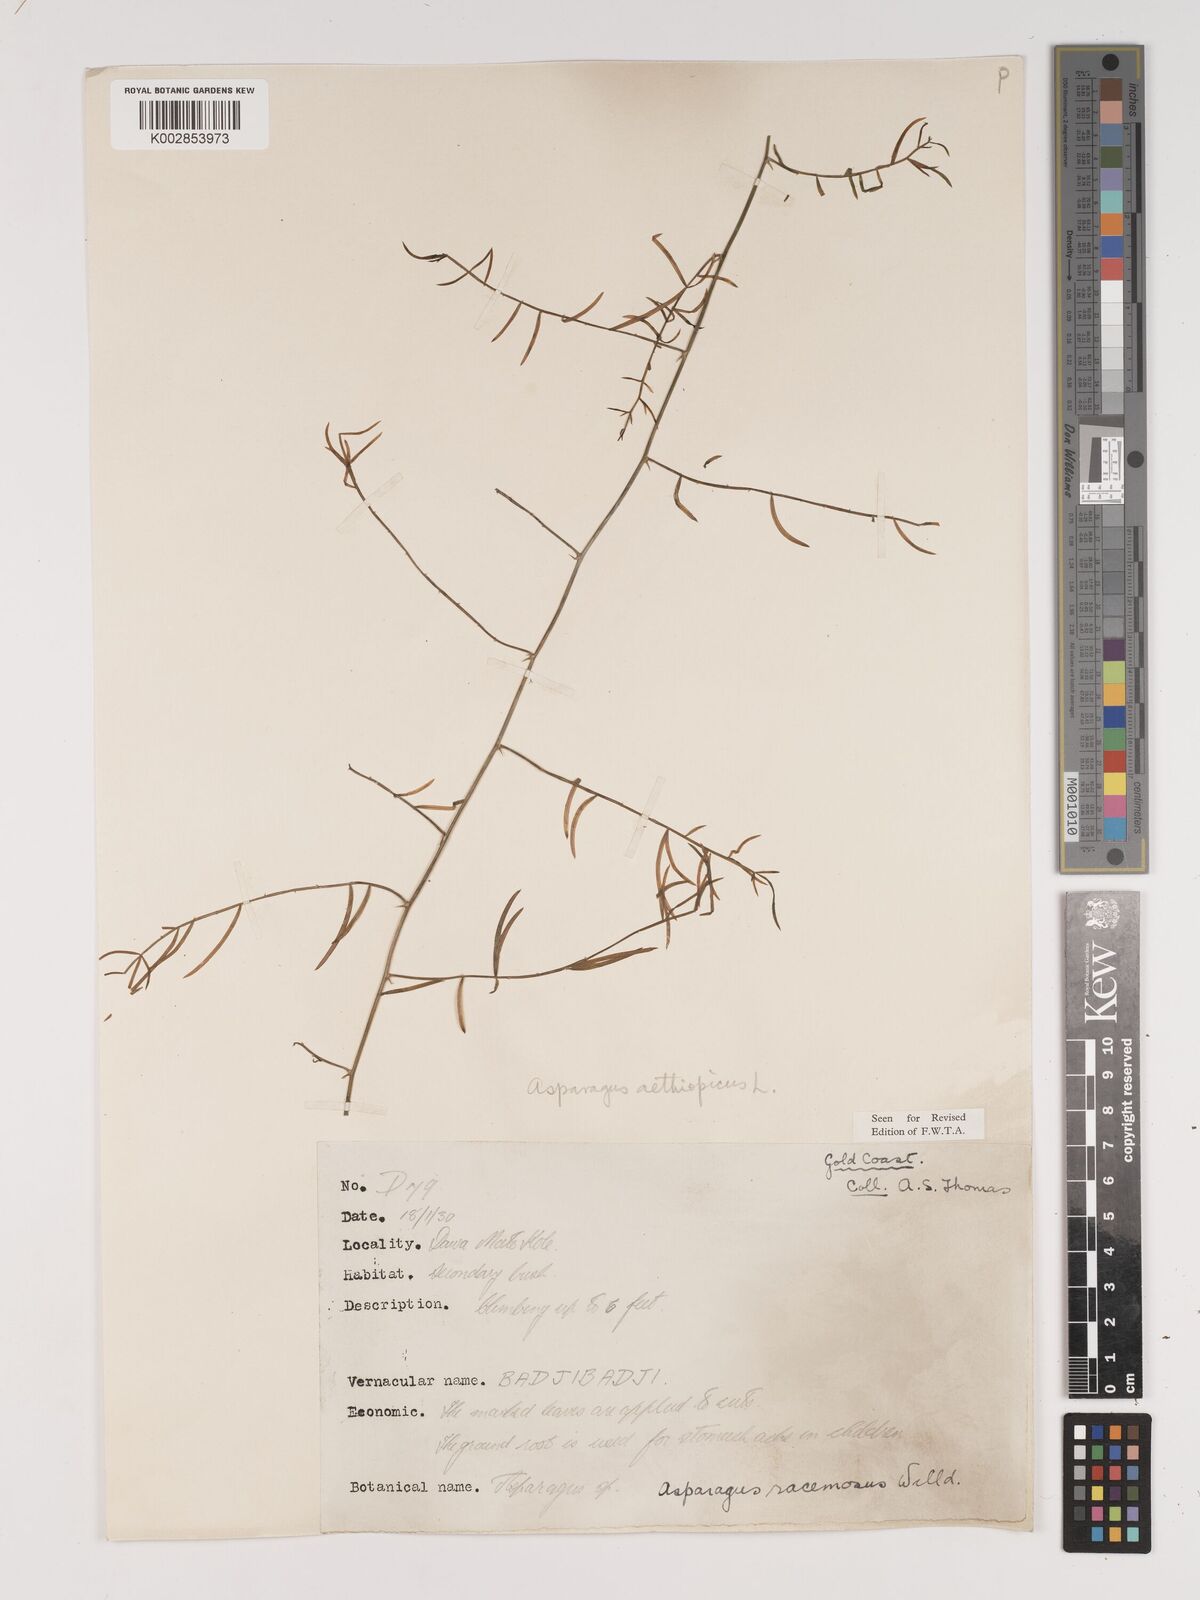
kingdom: Plantae
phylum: Tracheophyta
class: Liliopsida
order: Asparagales
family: Asparagaceae
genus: Asparagus
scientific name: Asparagus aethiopicus
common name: Sprenger's asparagus fern
